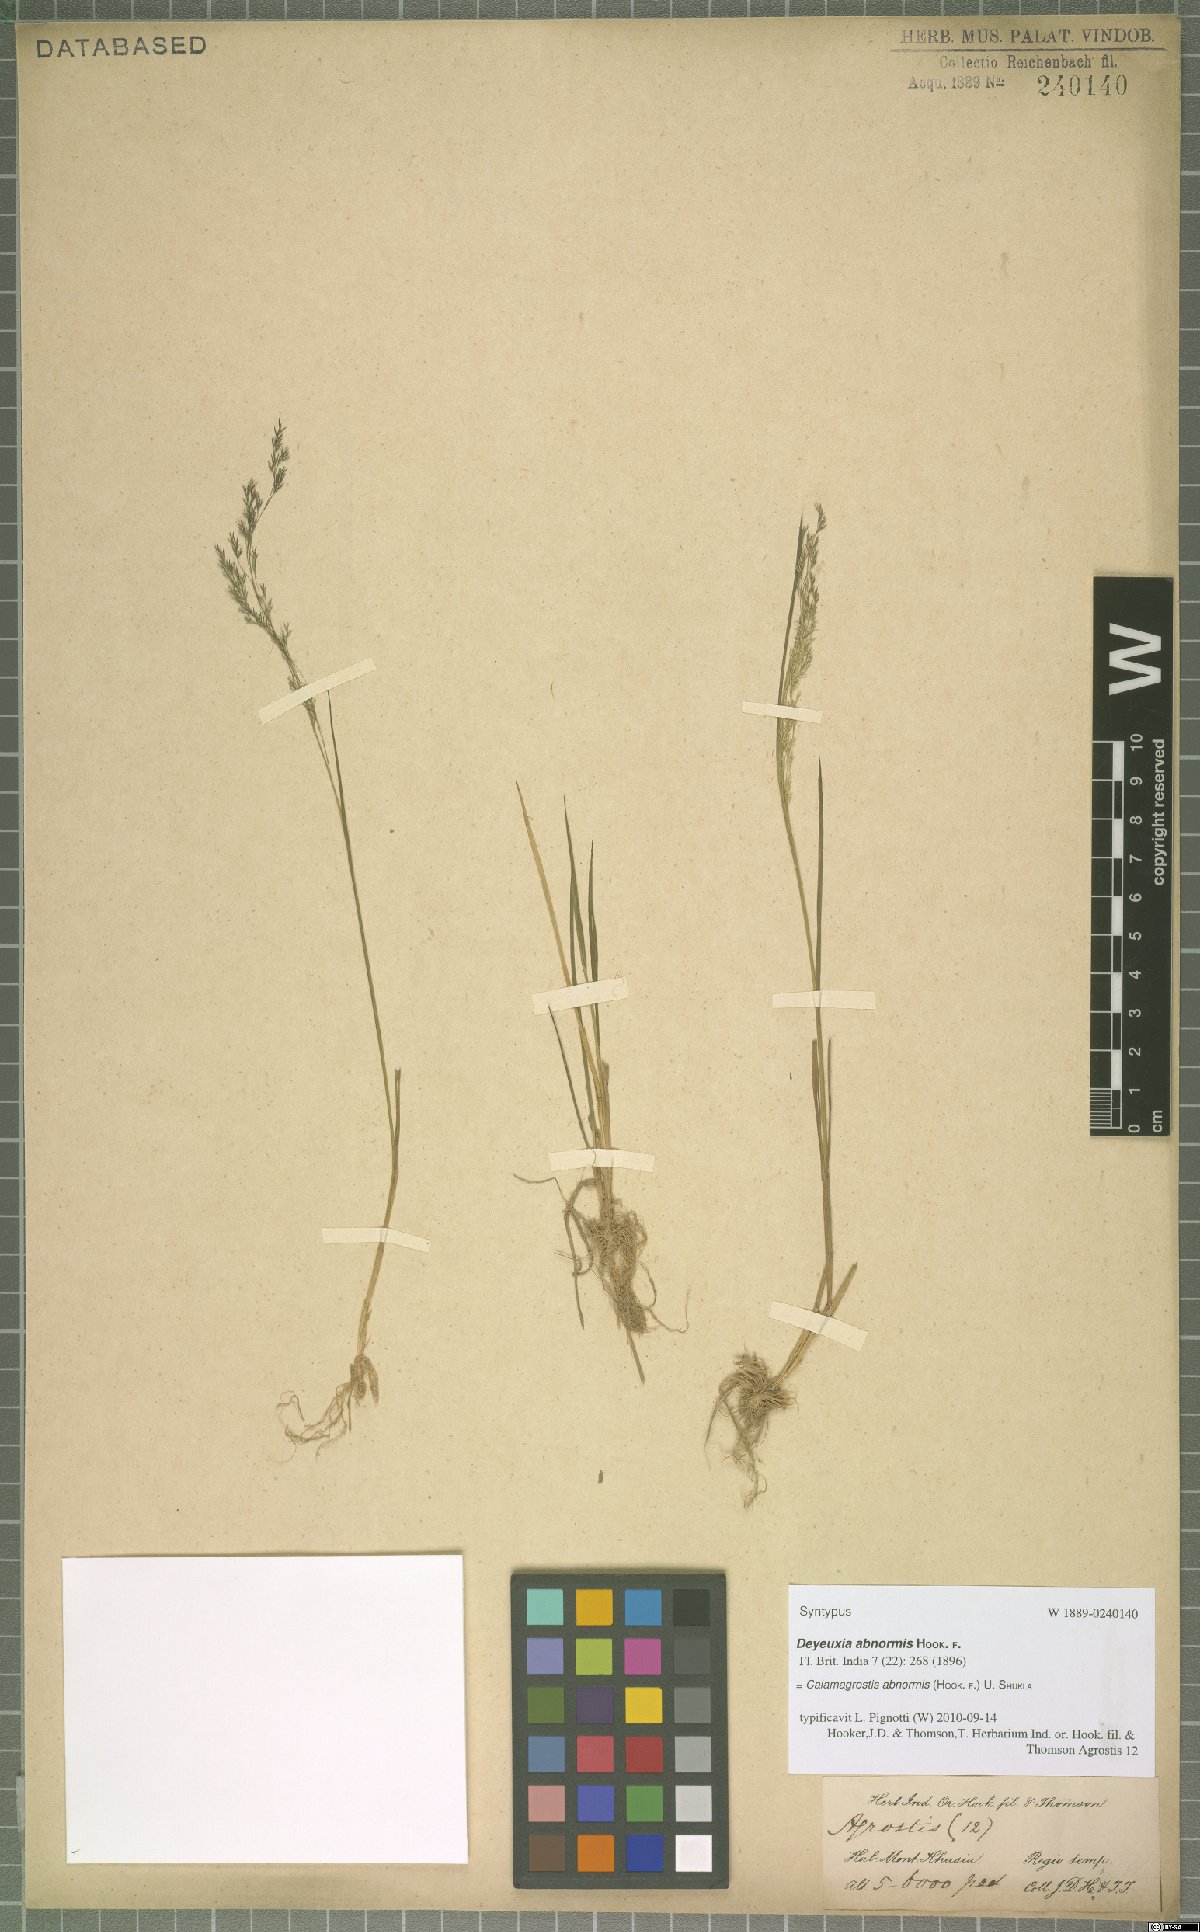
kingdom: Plantae
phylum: Tracheophyta
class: Liliopsida
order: Poales
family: Poaceae
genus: Agrostis
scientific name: Agrostis zenkeri
